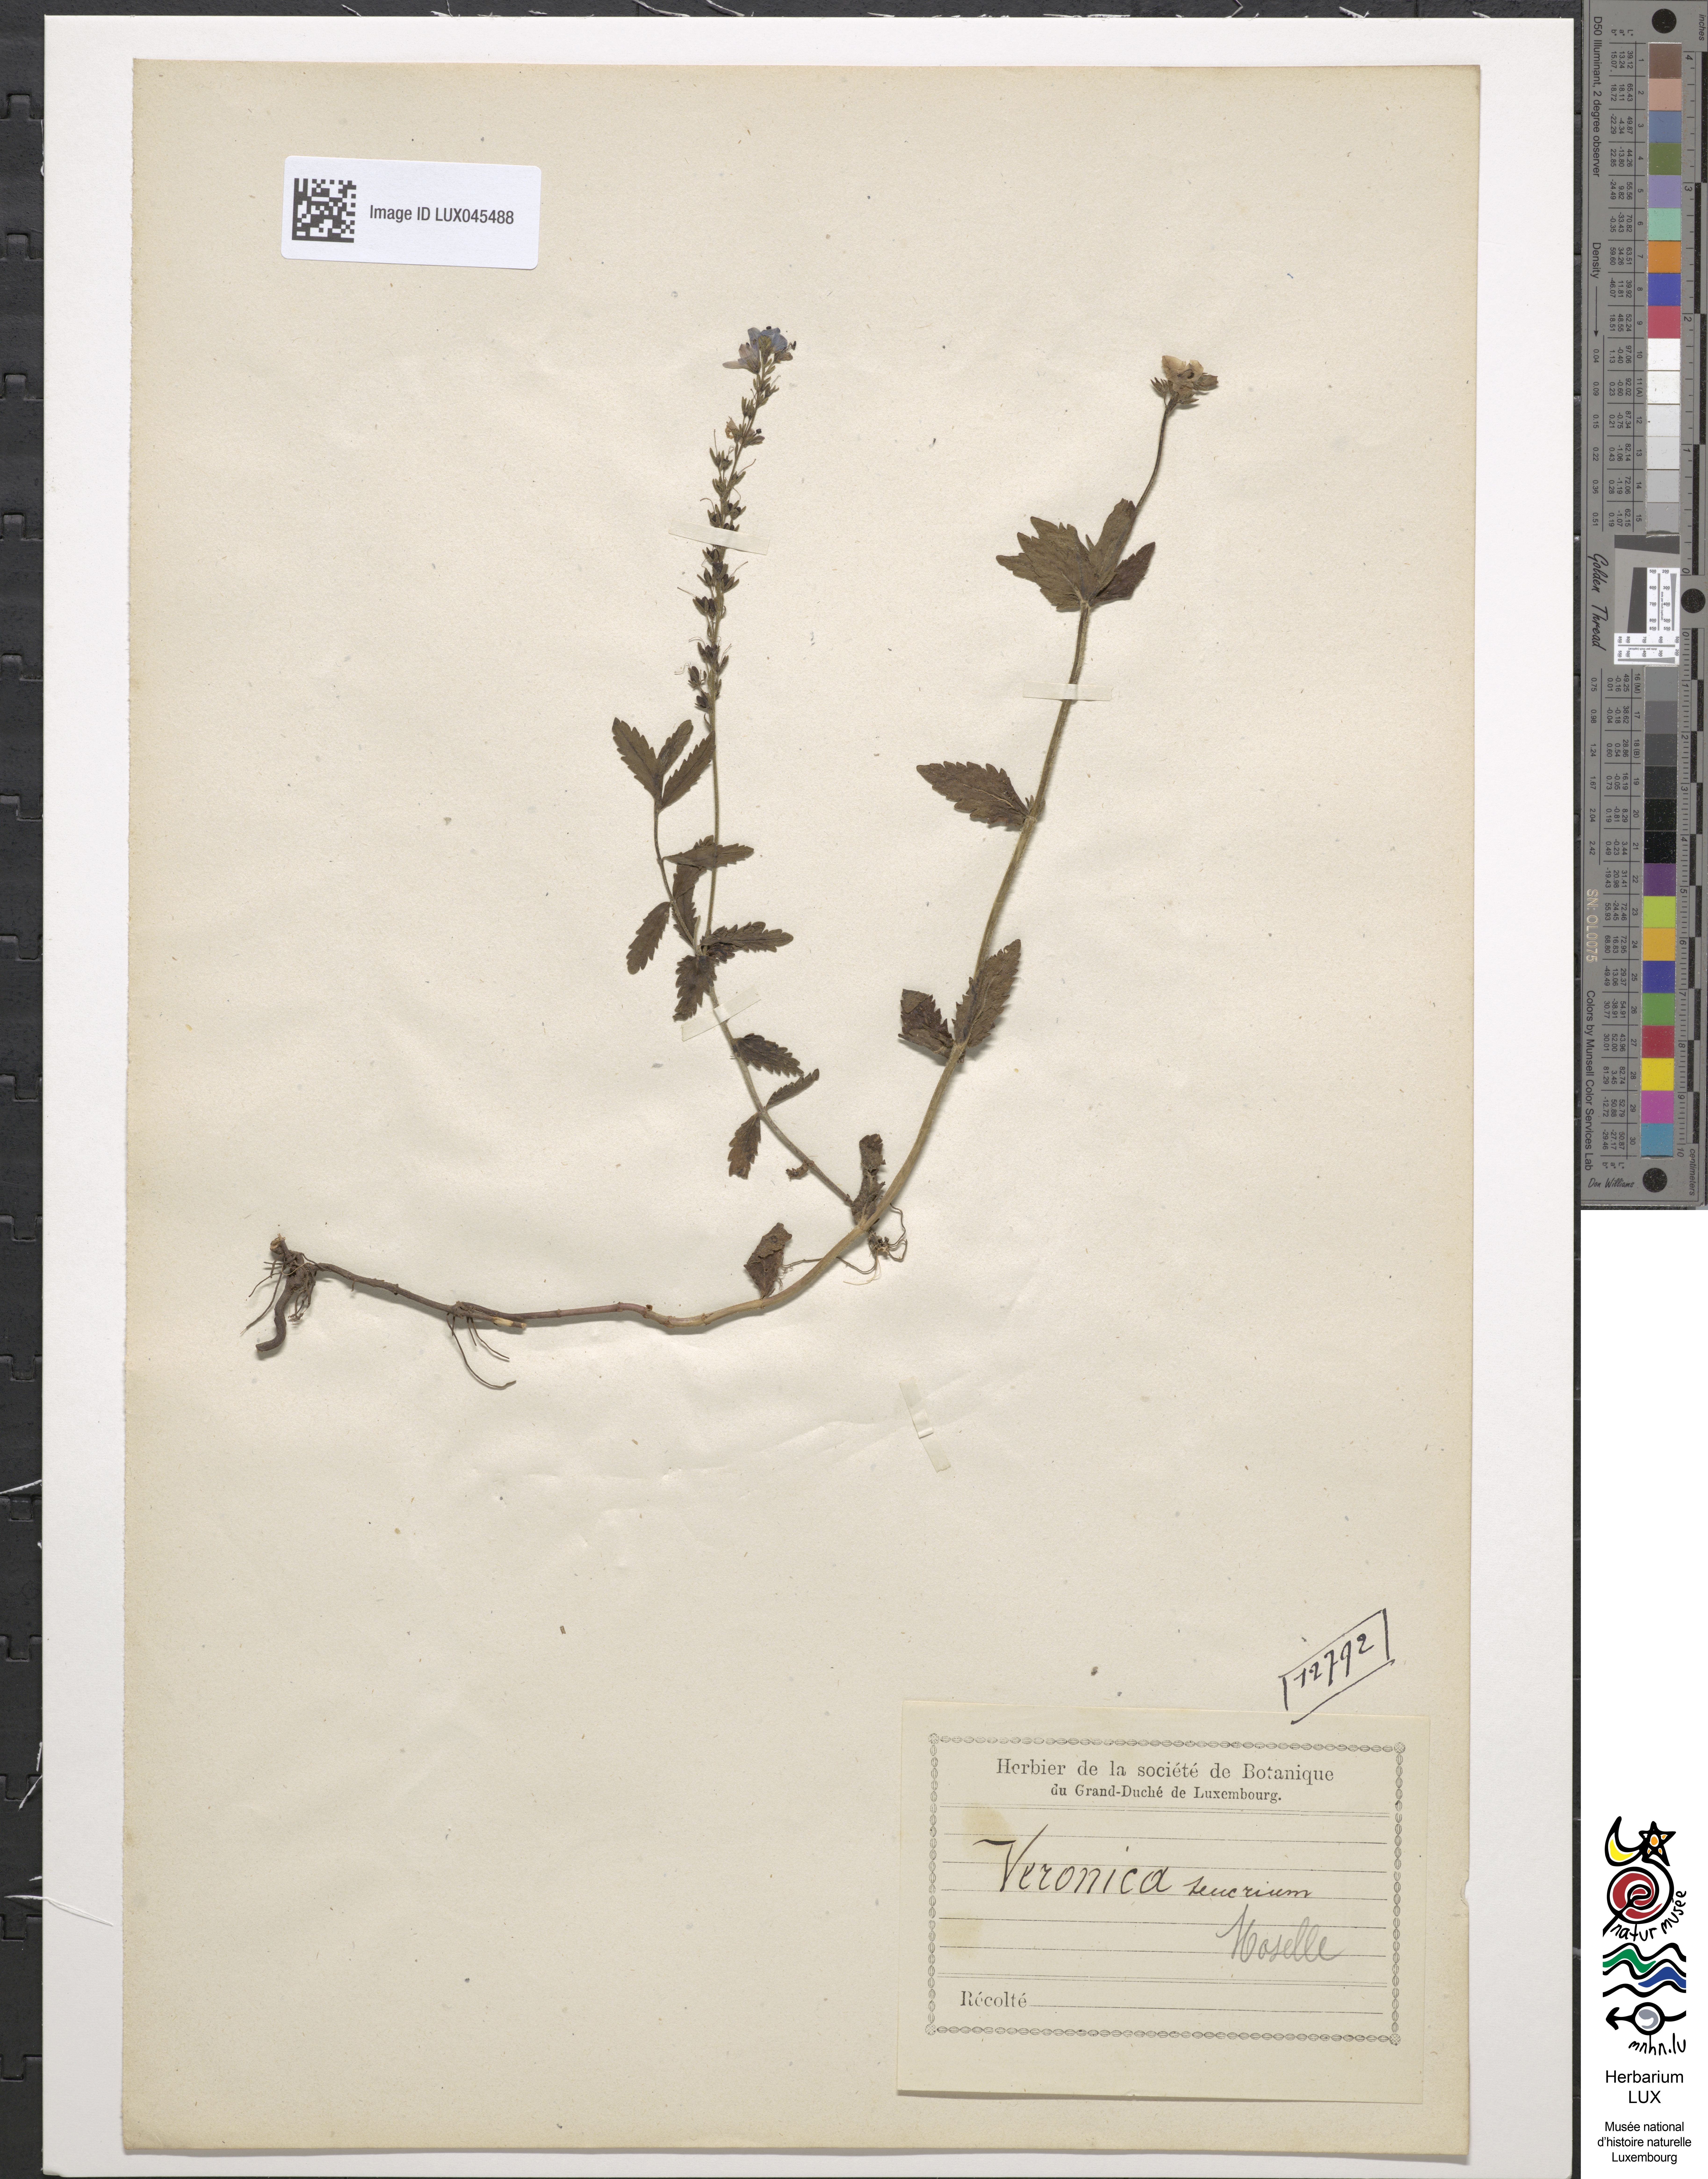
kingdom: Plantae
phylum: Tracheophyta
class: Magnoliopsida
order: Lamiales
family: Plantaginaceae
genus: Veronica
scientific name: Veronica teucrium
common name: Large speedwell
